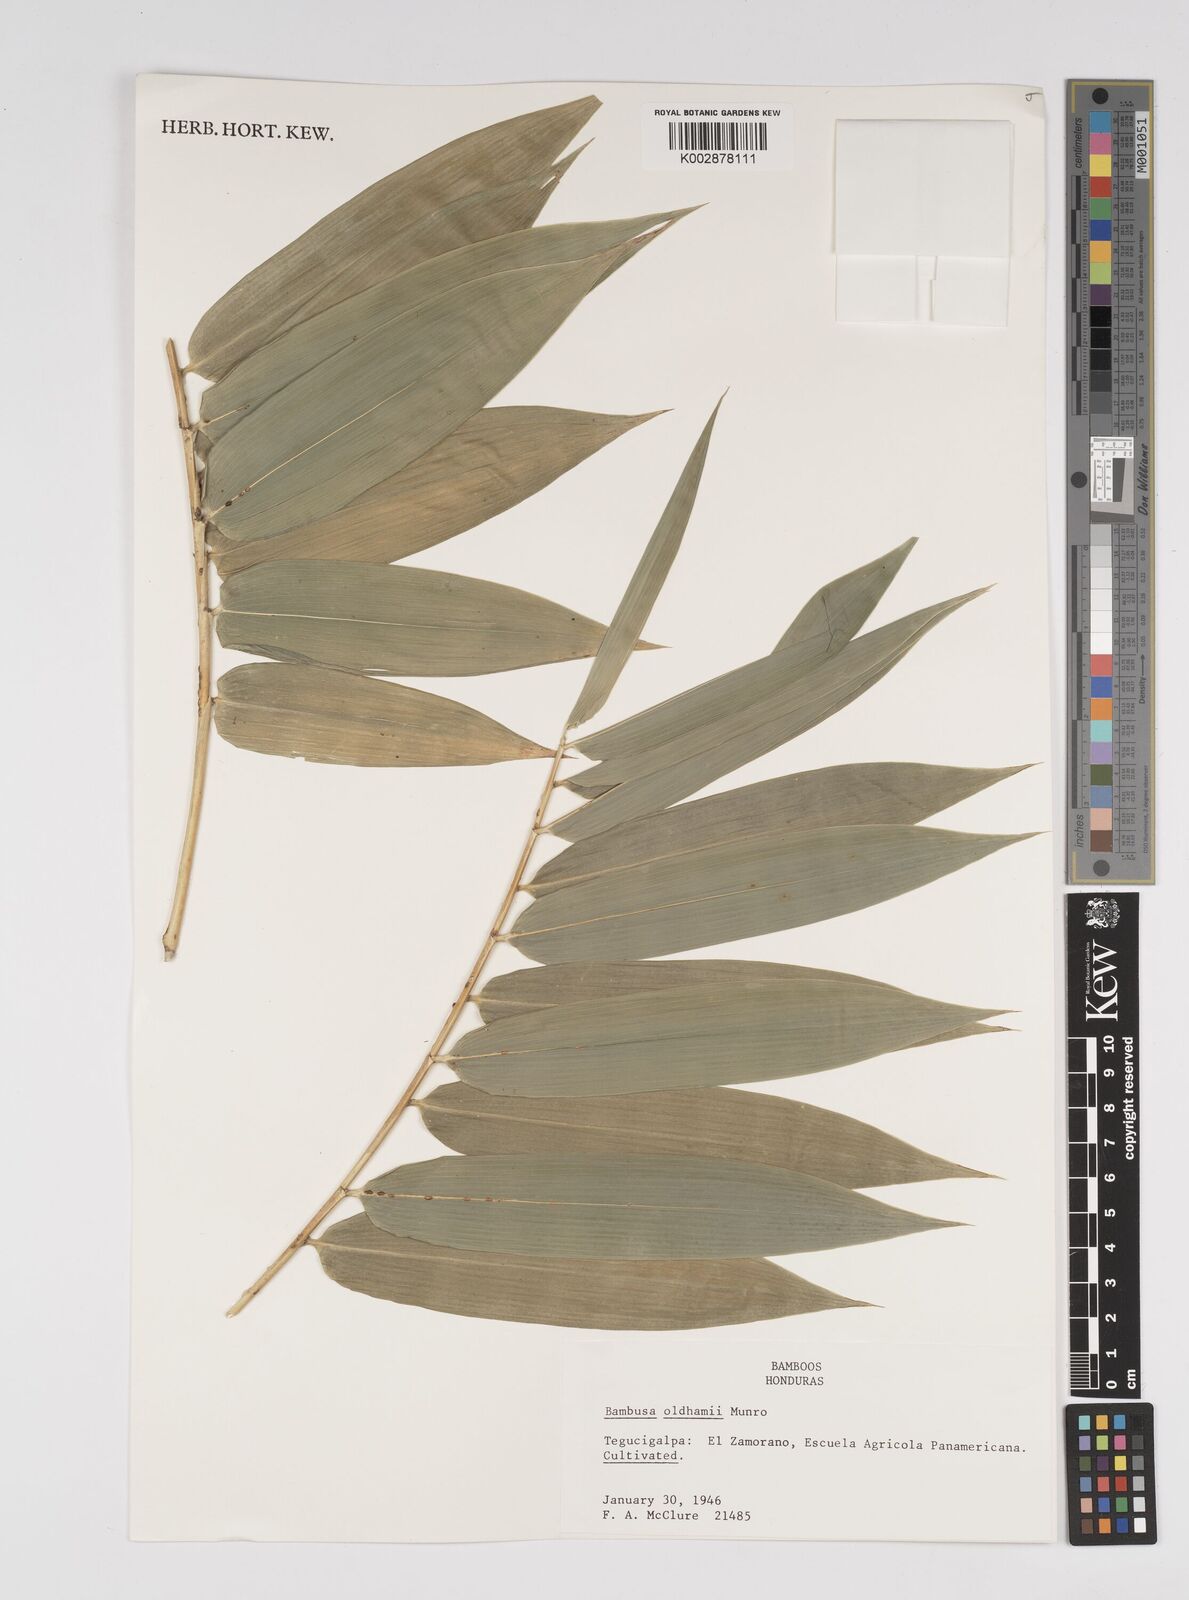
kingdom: Plantae
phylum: Tracheophyta
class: Liliopsida
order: Poales
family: Poaceae
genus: Bambusa
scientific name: Bambusa oldhamii
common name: Giant timber bamboo
